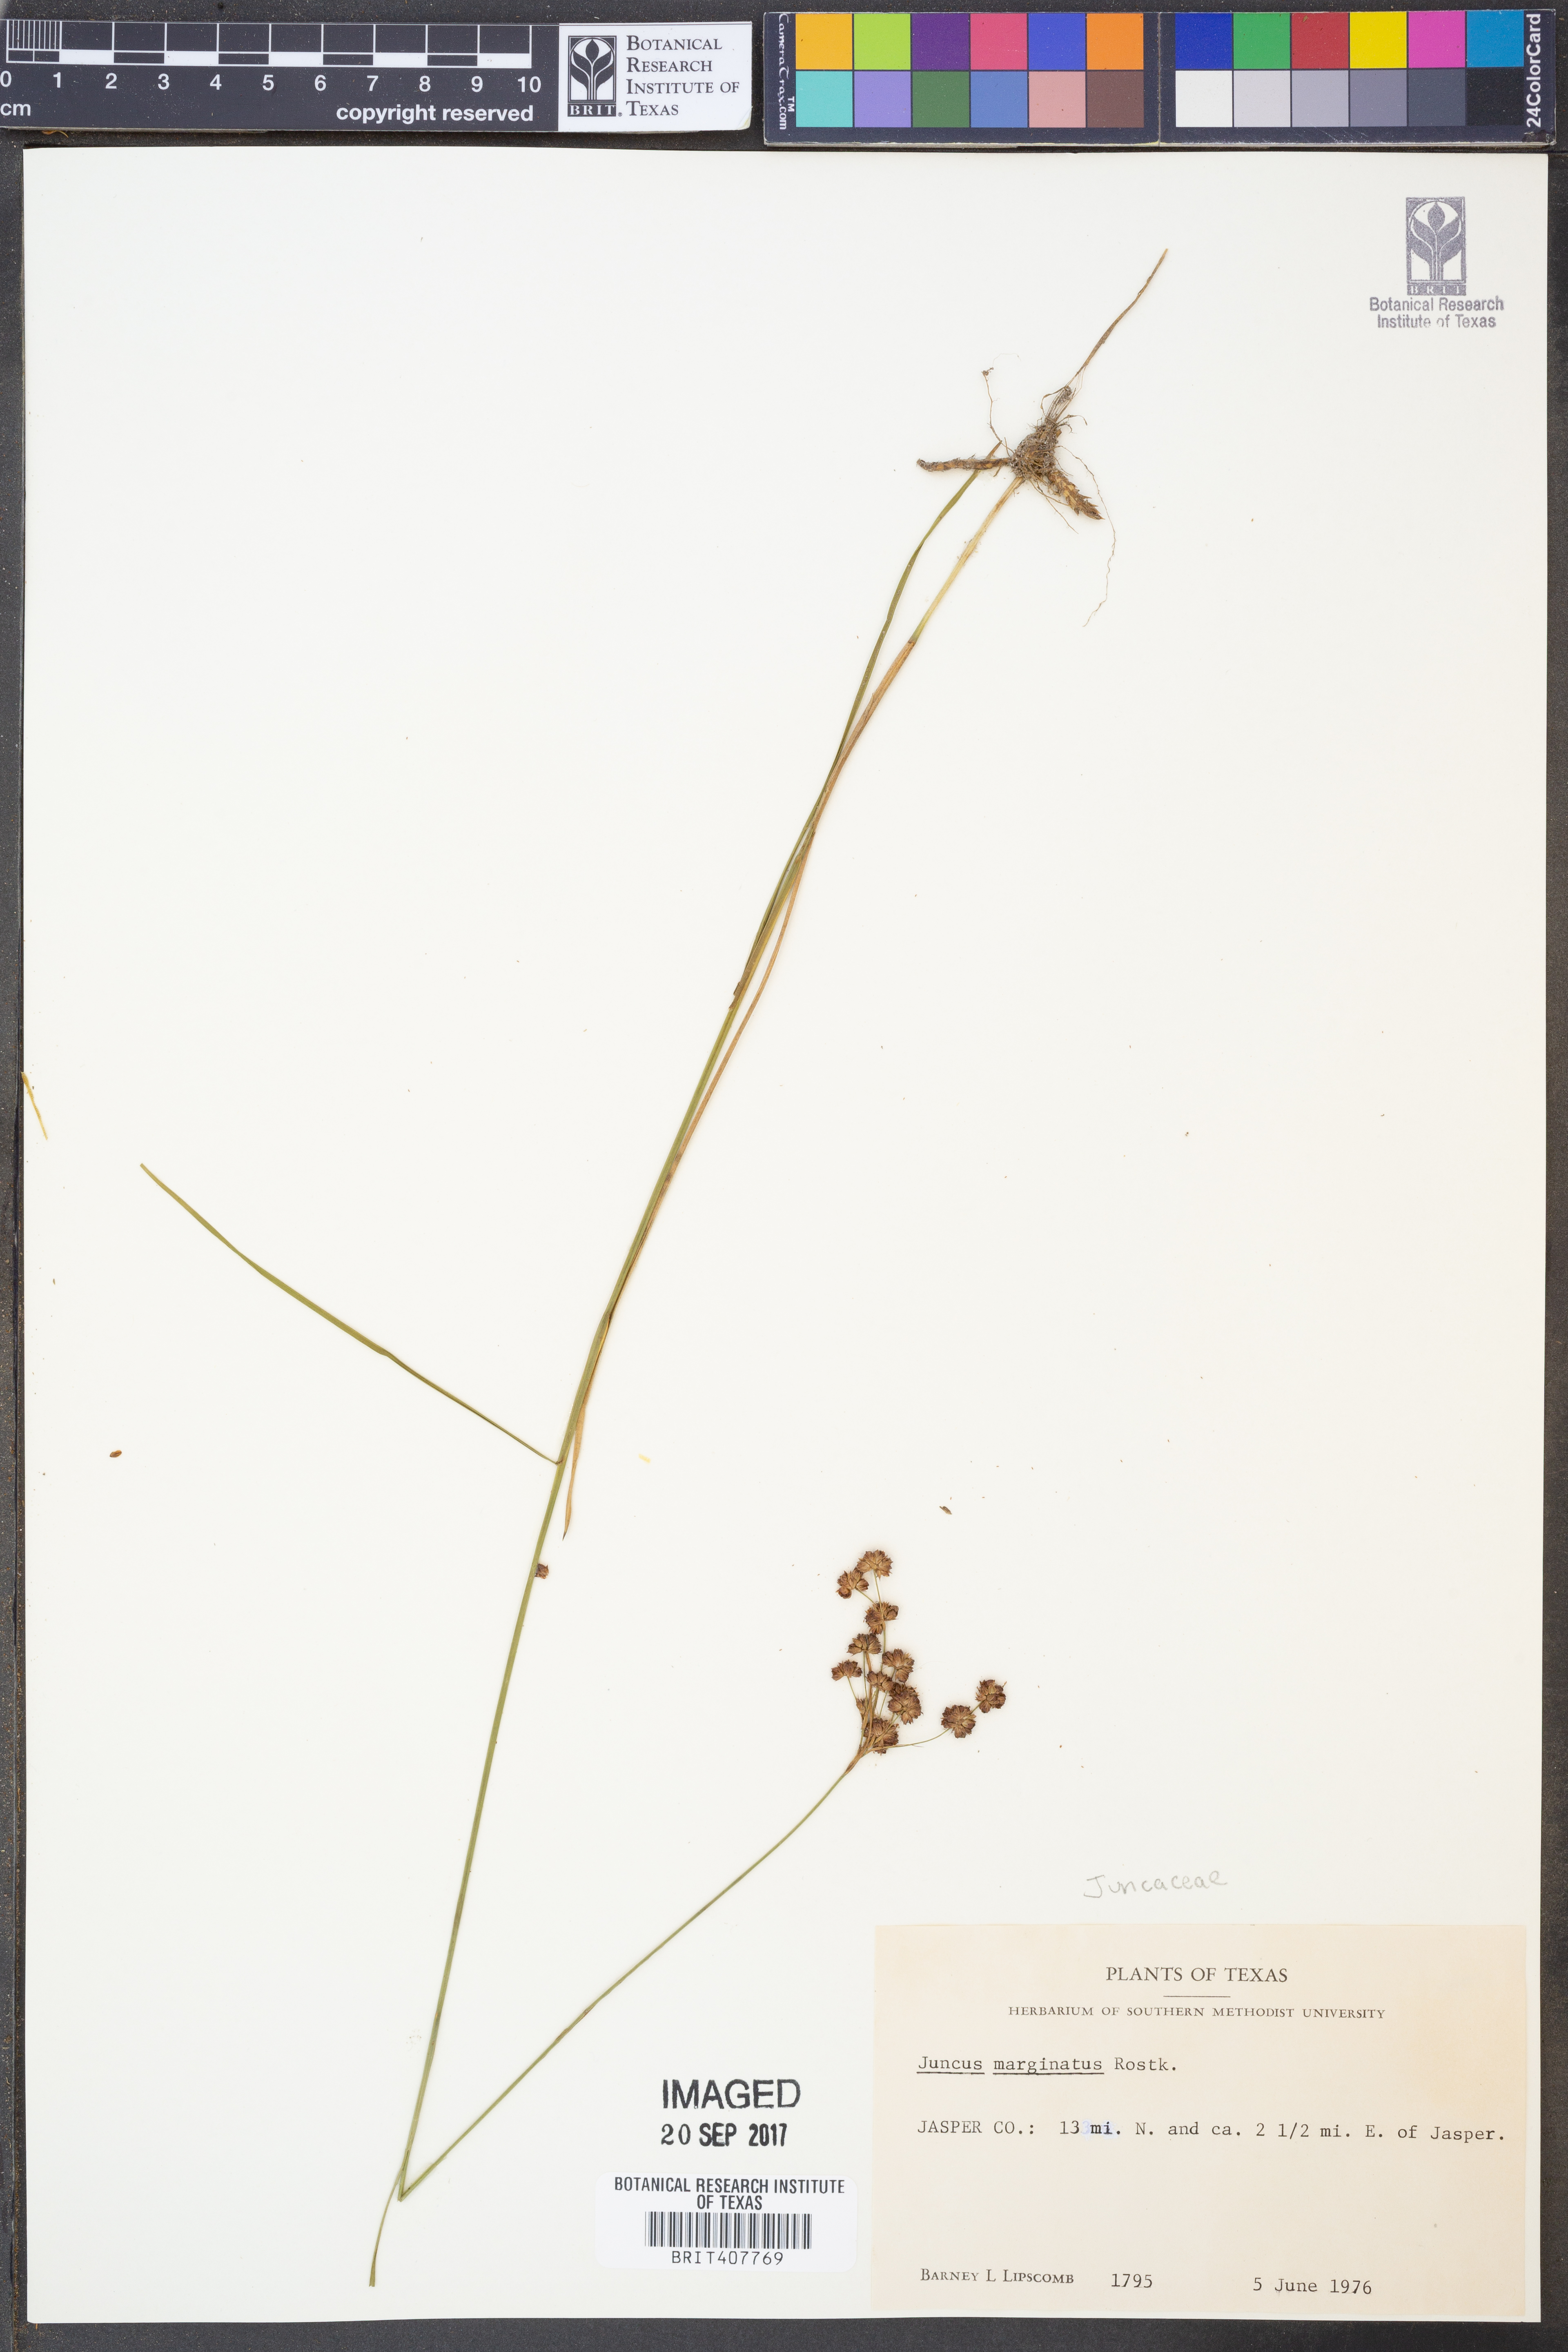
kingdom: Plantae
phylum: Tracheophyta
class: Liliopsida
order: Poales
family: Juncaceae
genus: Juncus
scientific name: Juncus marginatus
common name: Grass-leaf rush
